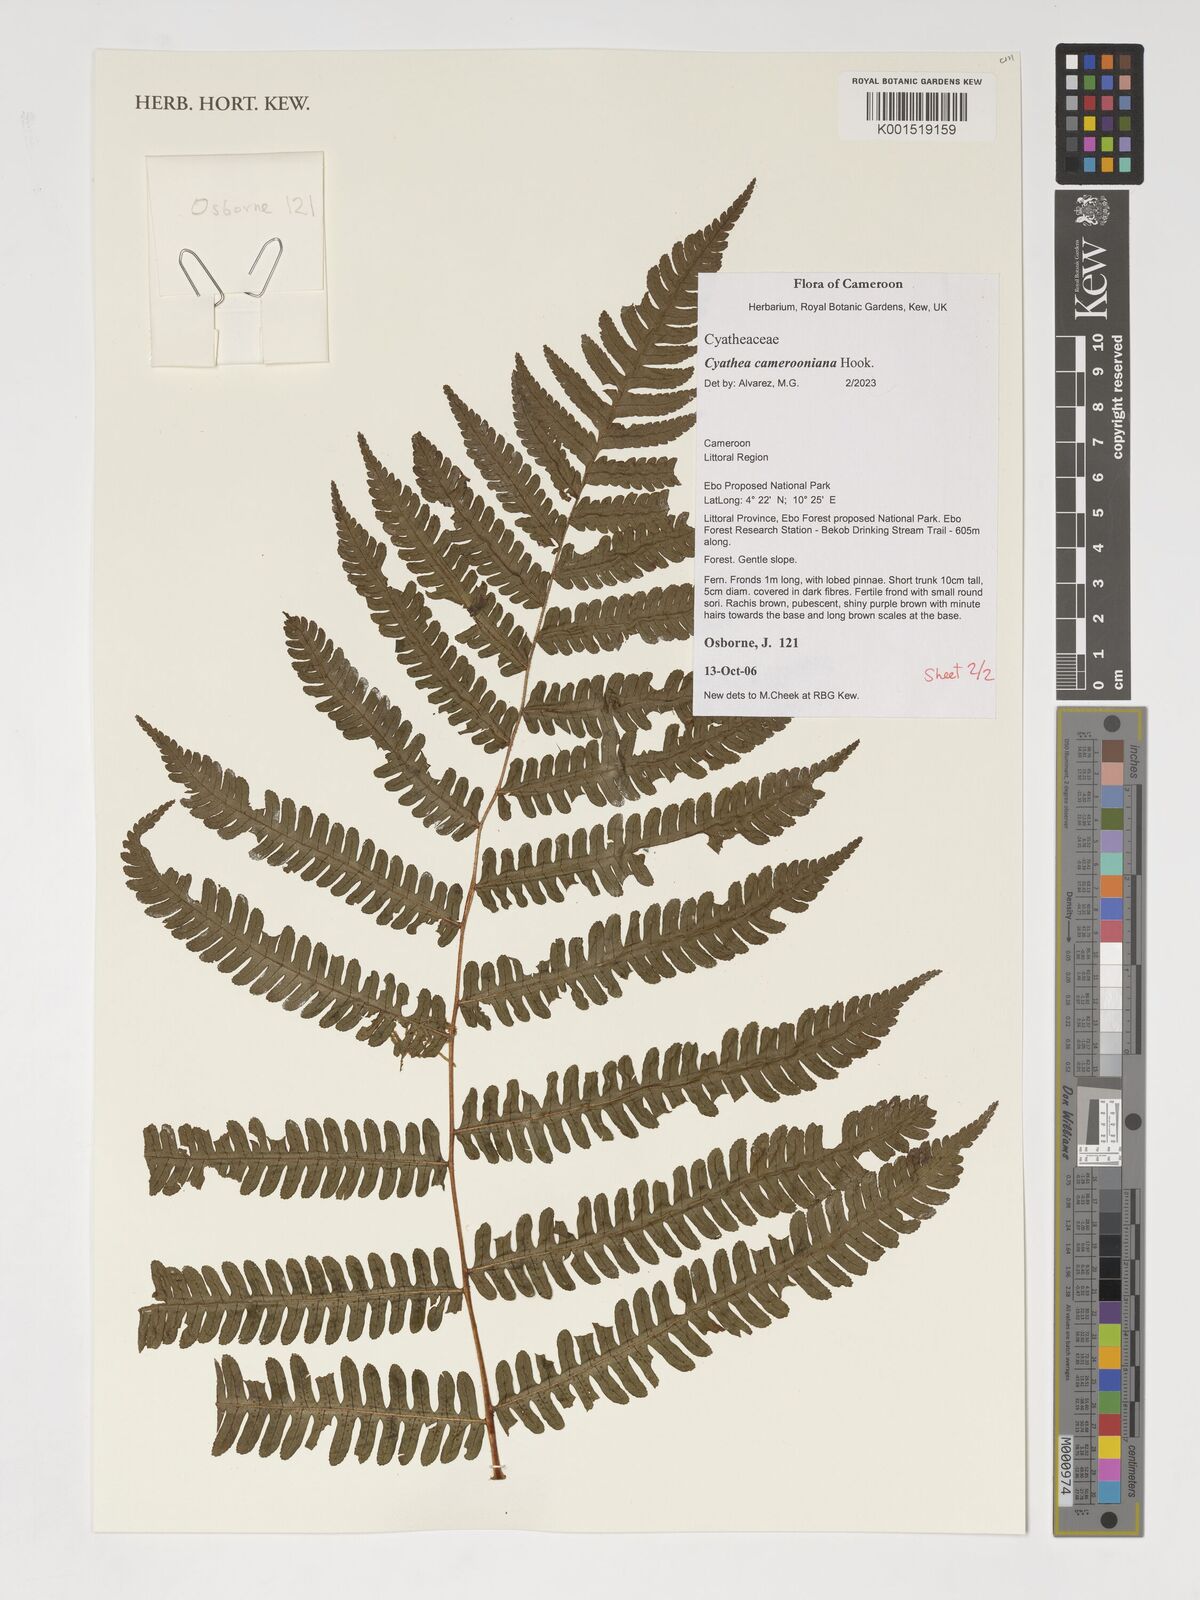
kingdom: Plantae
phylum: Tracheophyta
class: Polypodiopsida
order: Cyatheales
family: Cyatheaceae
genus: Alsophila
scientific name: Alsophila camerooniana
